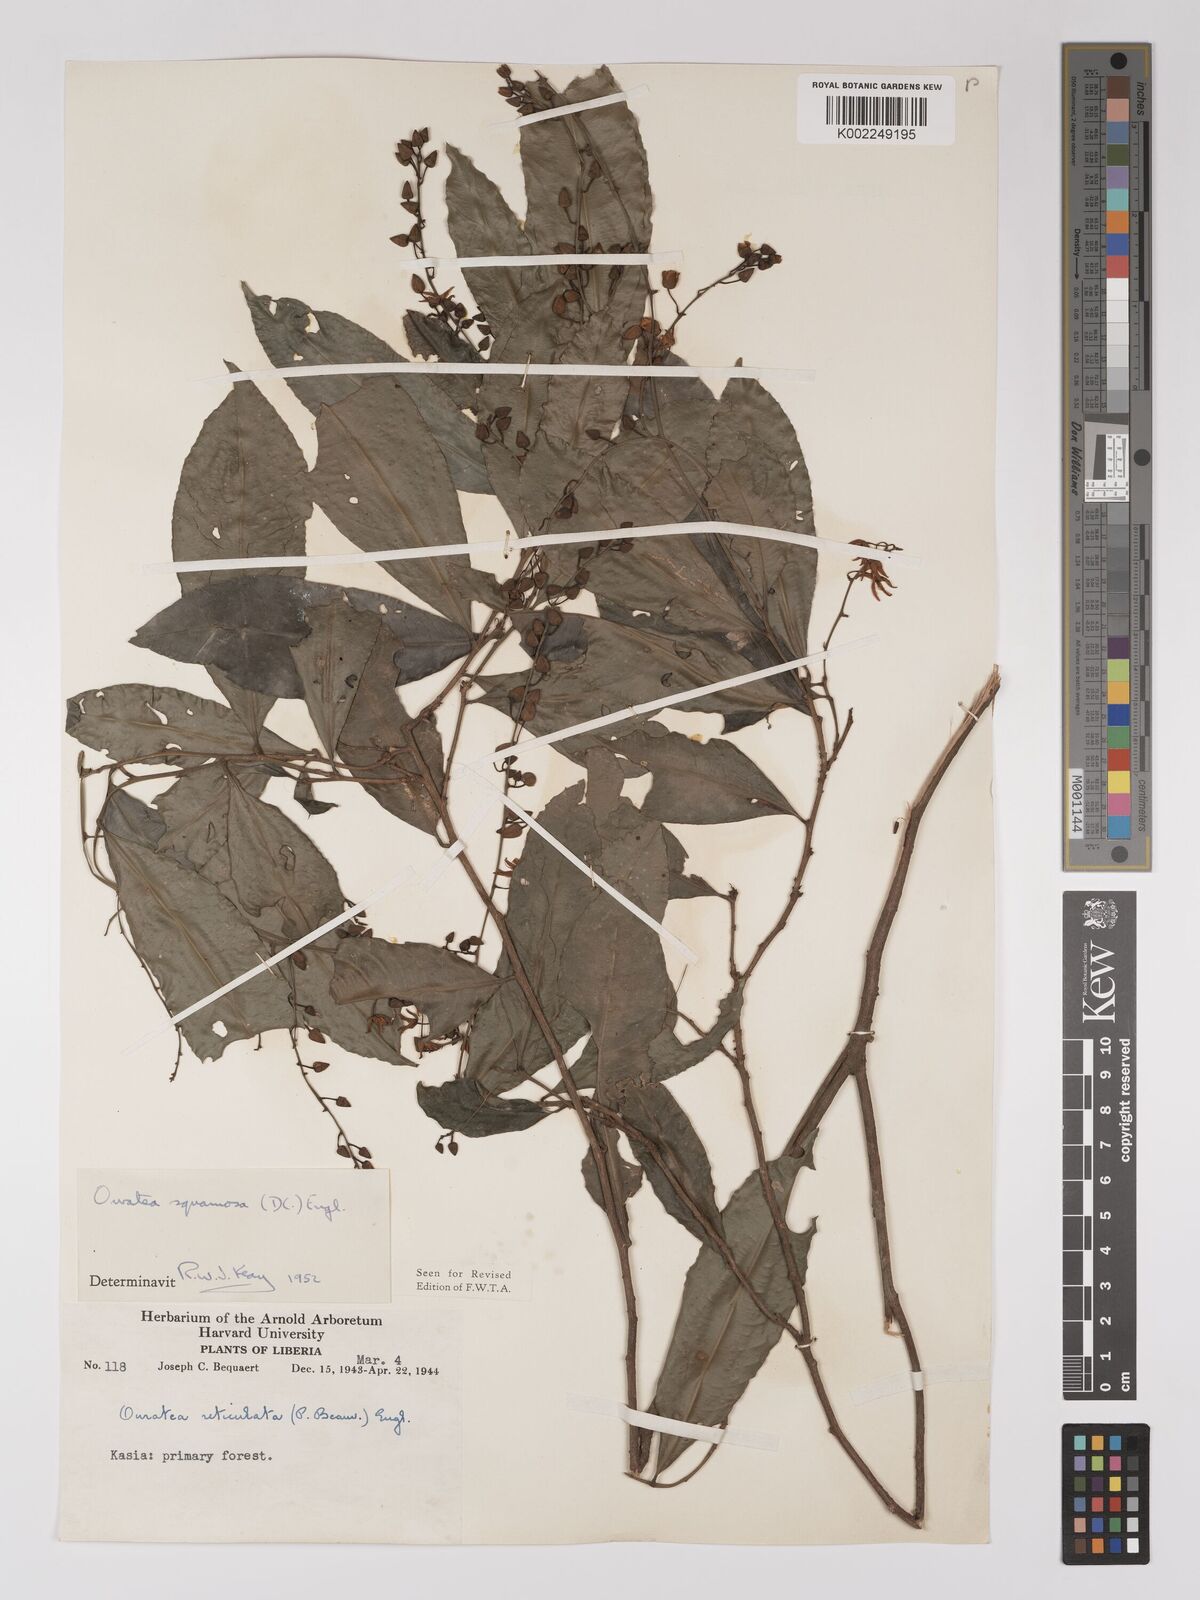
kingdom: Plantae
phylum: Tracheophyta
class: Magnoliopsida
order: Malpighiales
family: Ochnaceae
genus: Campylospermum
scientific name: Campylospermum squamosum
